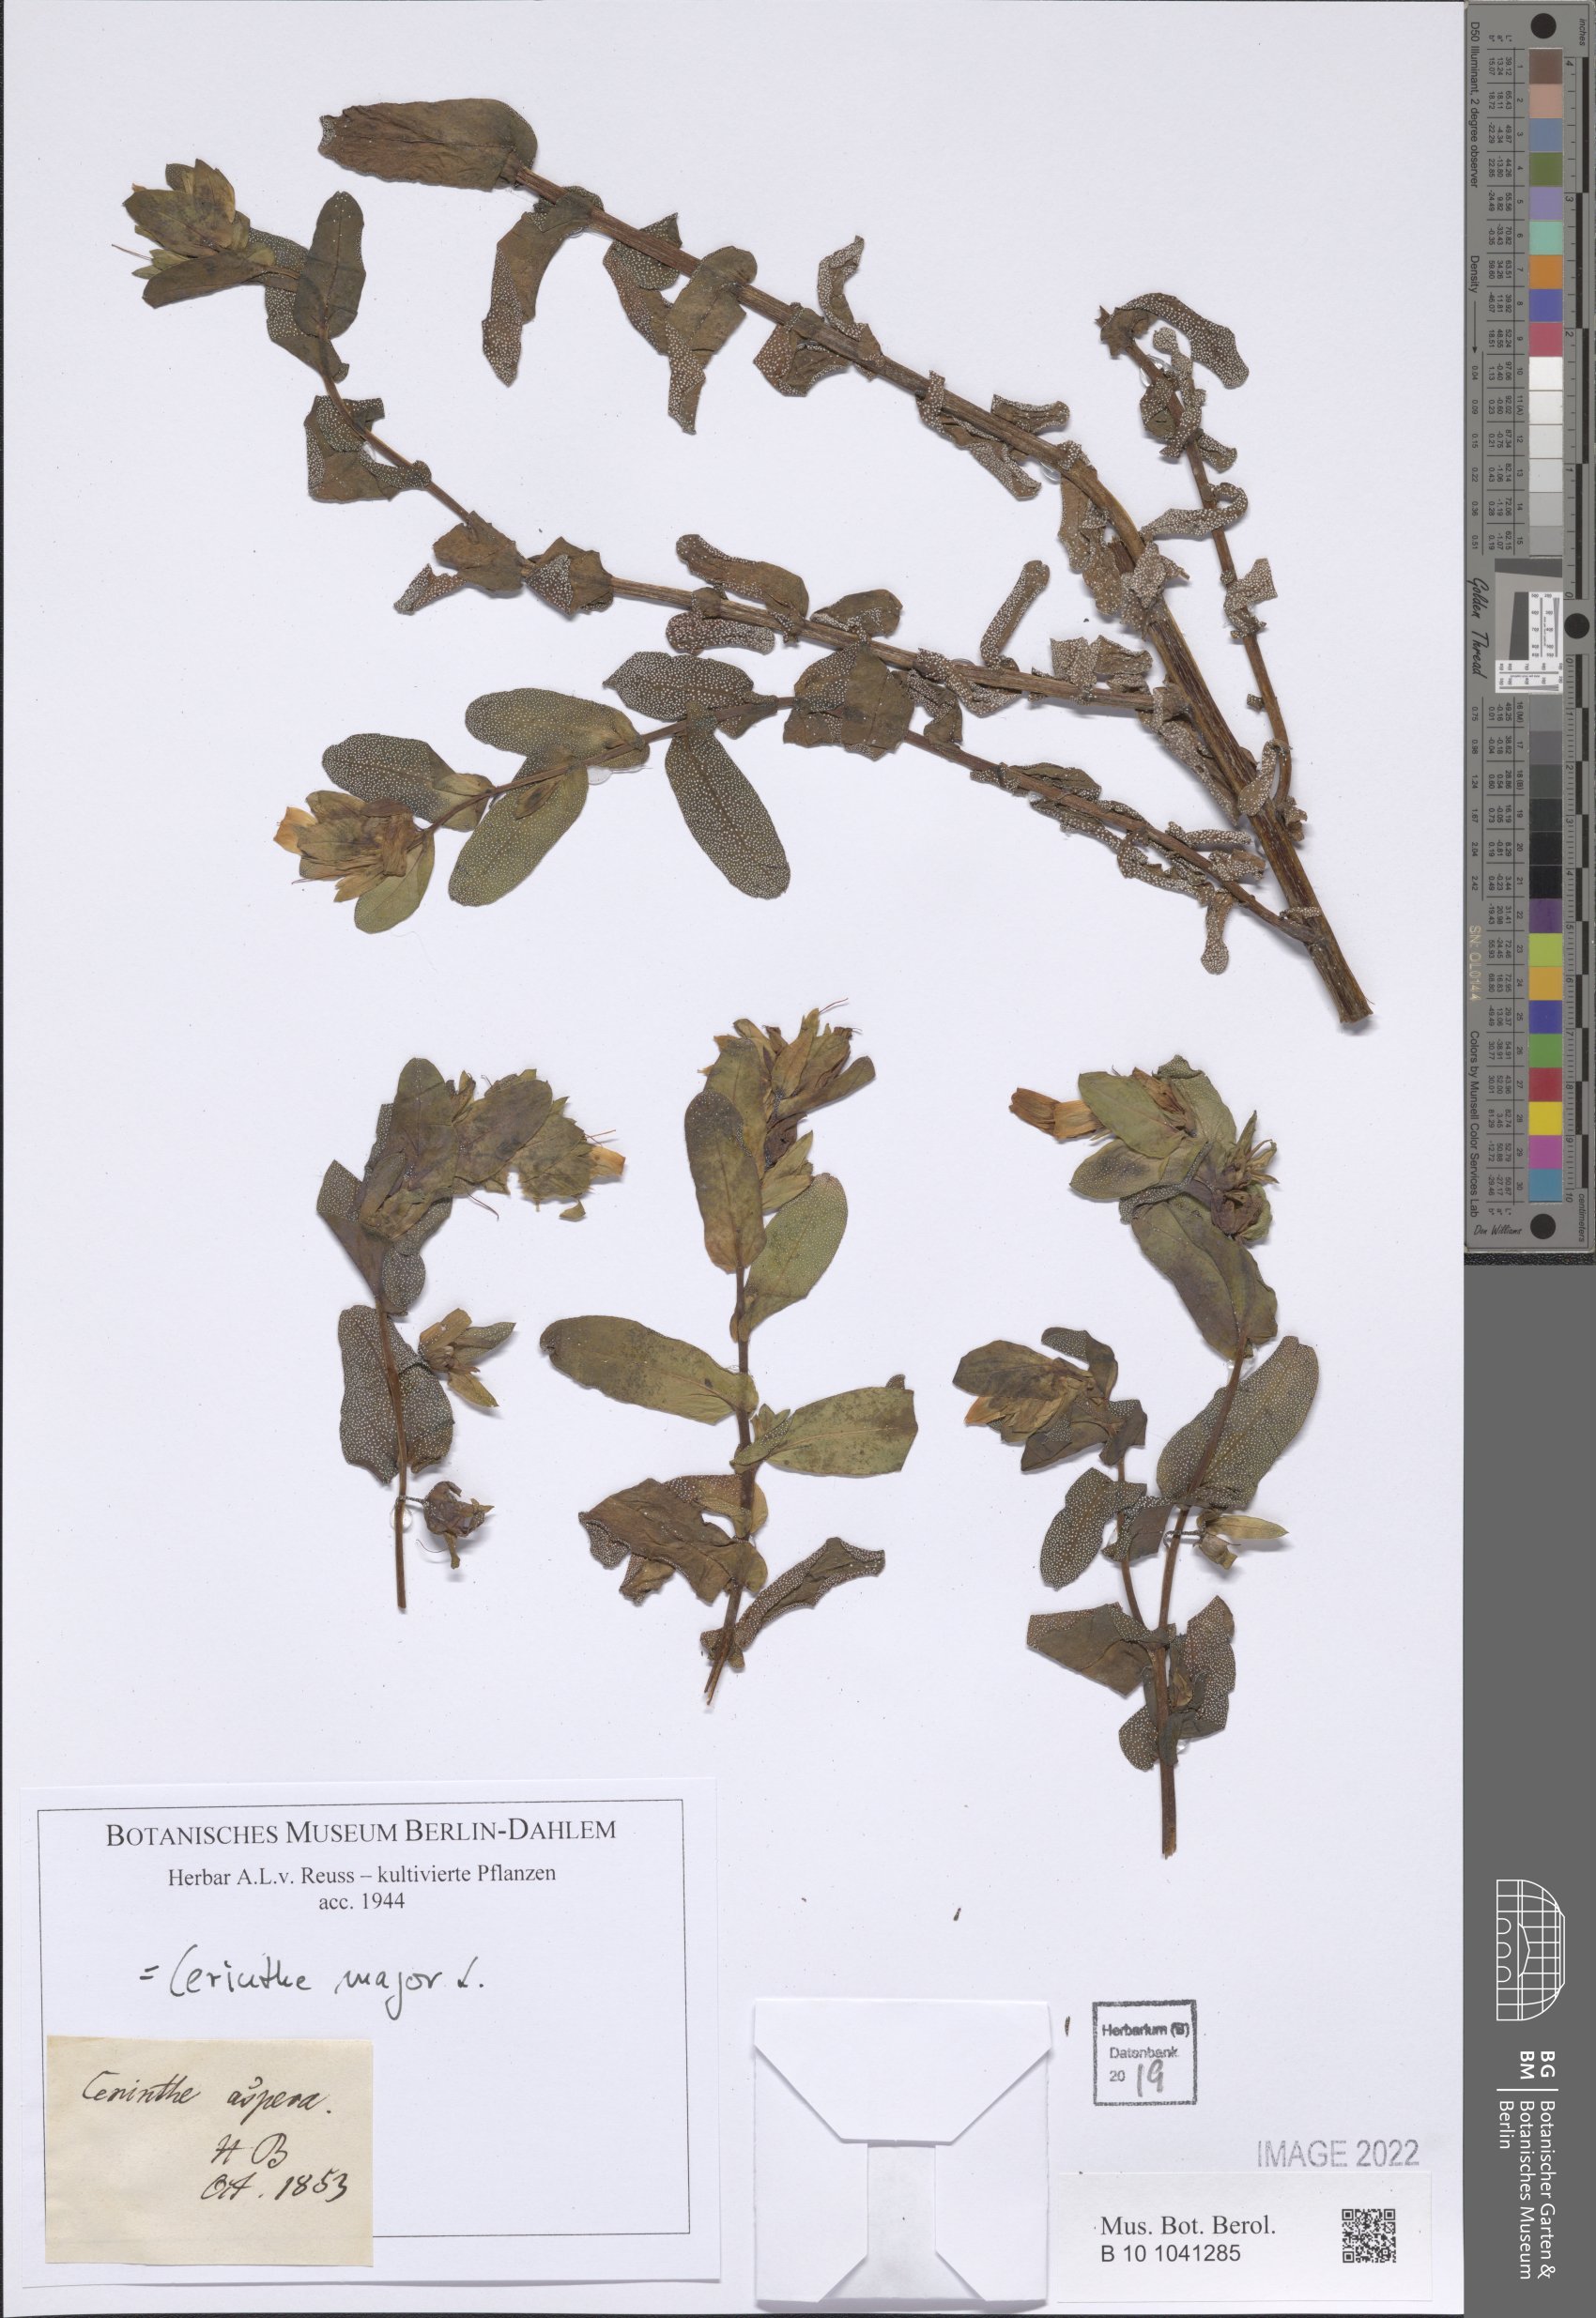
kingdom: Plantae
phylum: Tracheophyta
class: Magnoliopsida
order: Boraginales
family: Boraginaceae
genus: Cerinthe
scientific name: Cerinthe major
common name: Greater honeywort
